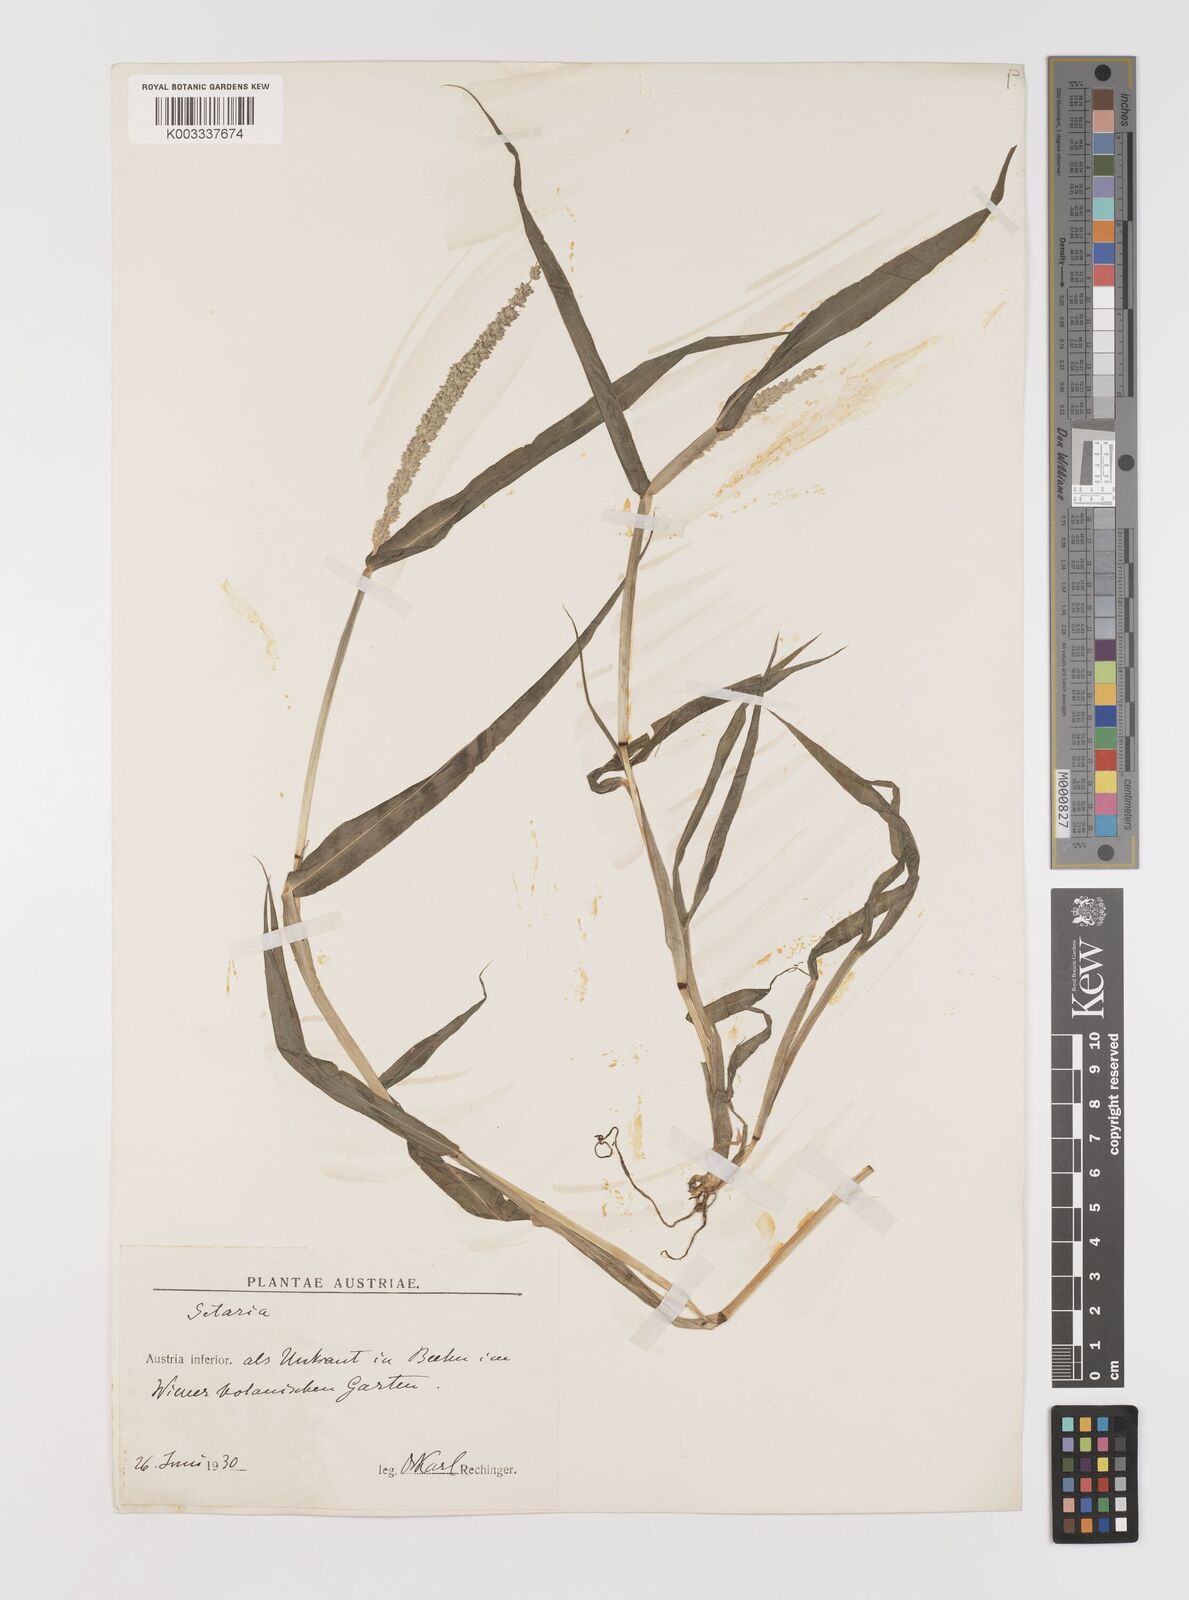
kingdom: Plantae
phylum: Tracheophyta
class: Liliopsida
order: Poales
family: Poaceae
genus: Setaria
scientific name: Setaria verticillata
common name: Hooked bristlegrass
